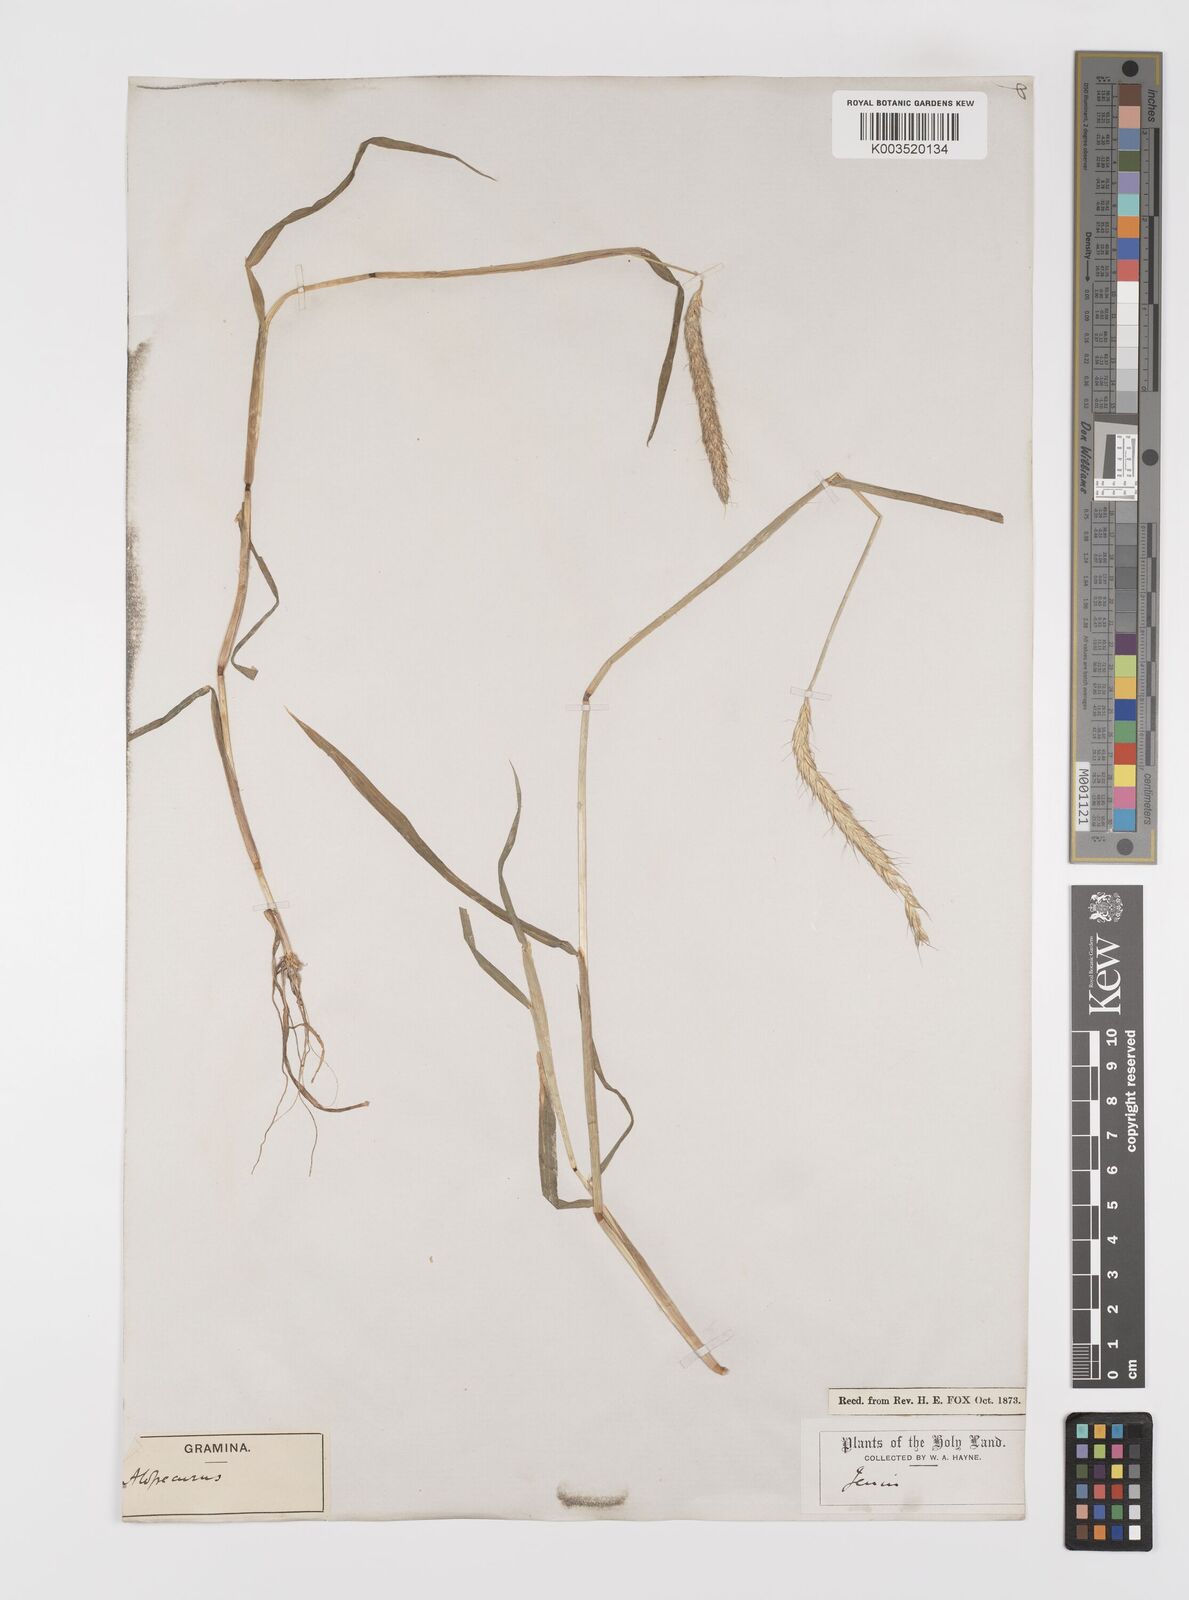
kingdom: Plantae
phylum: Tracheophyta
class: Liliopsida
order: Poales
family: Poaceae
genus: Alopecurus
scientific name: Alopecurus myosuroides
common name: Black-grass
